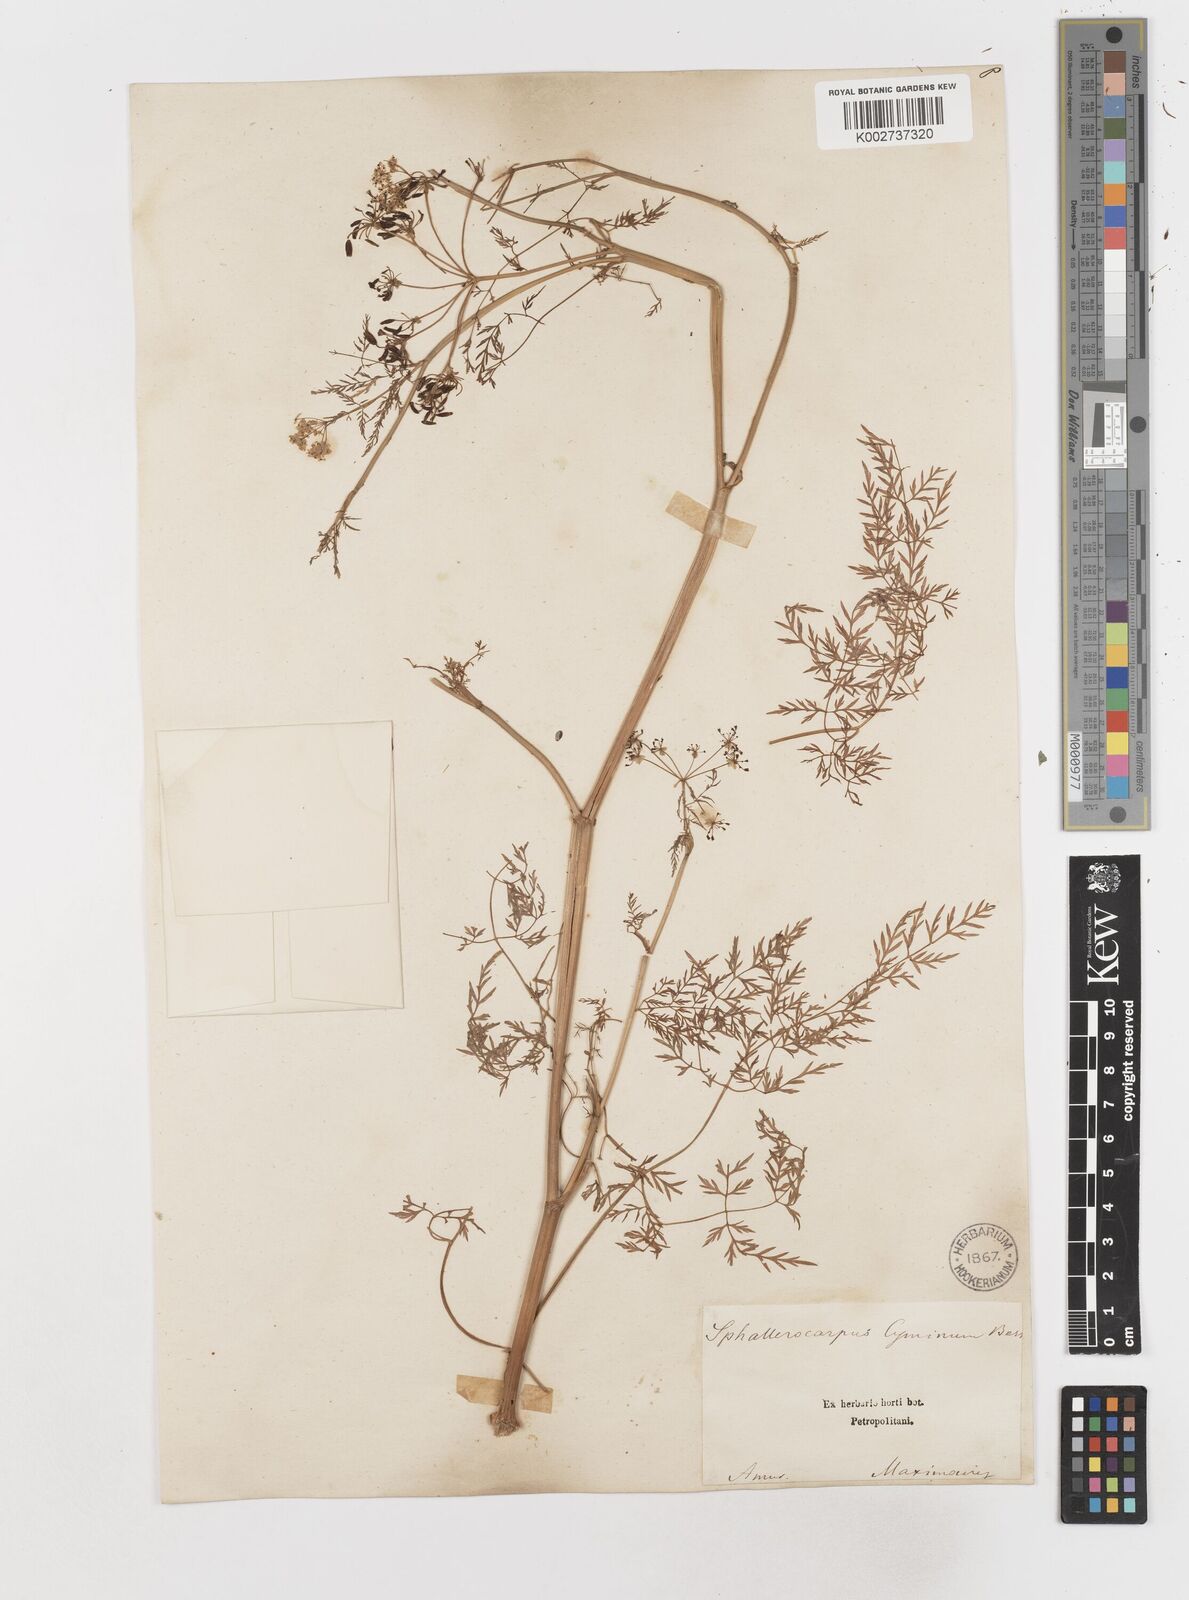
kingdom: Plantae
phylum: Tracheophyta
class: Magnoliopsida
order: Apiales
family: Apiaceae
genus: Sphallerocarpus
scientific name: Sphallerocarpus gracilis
